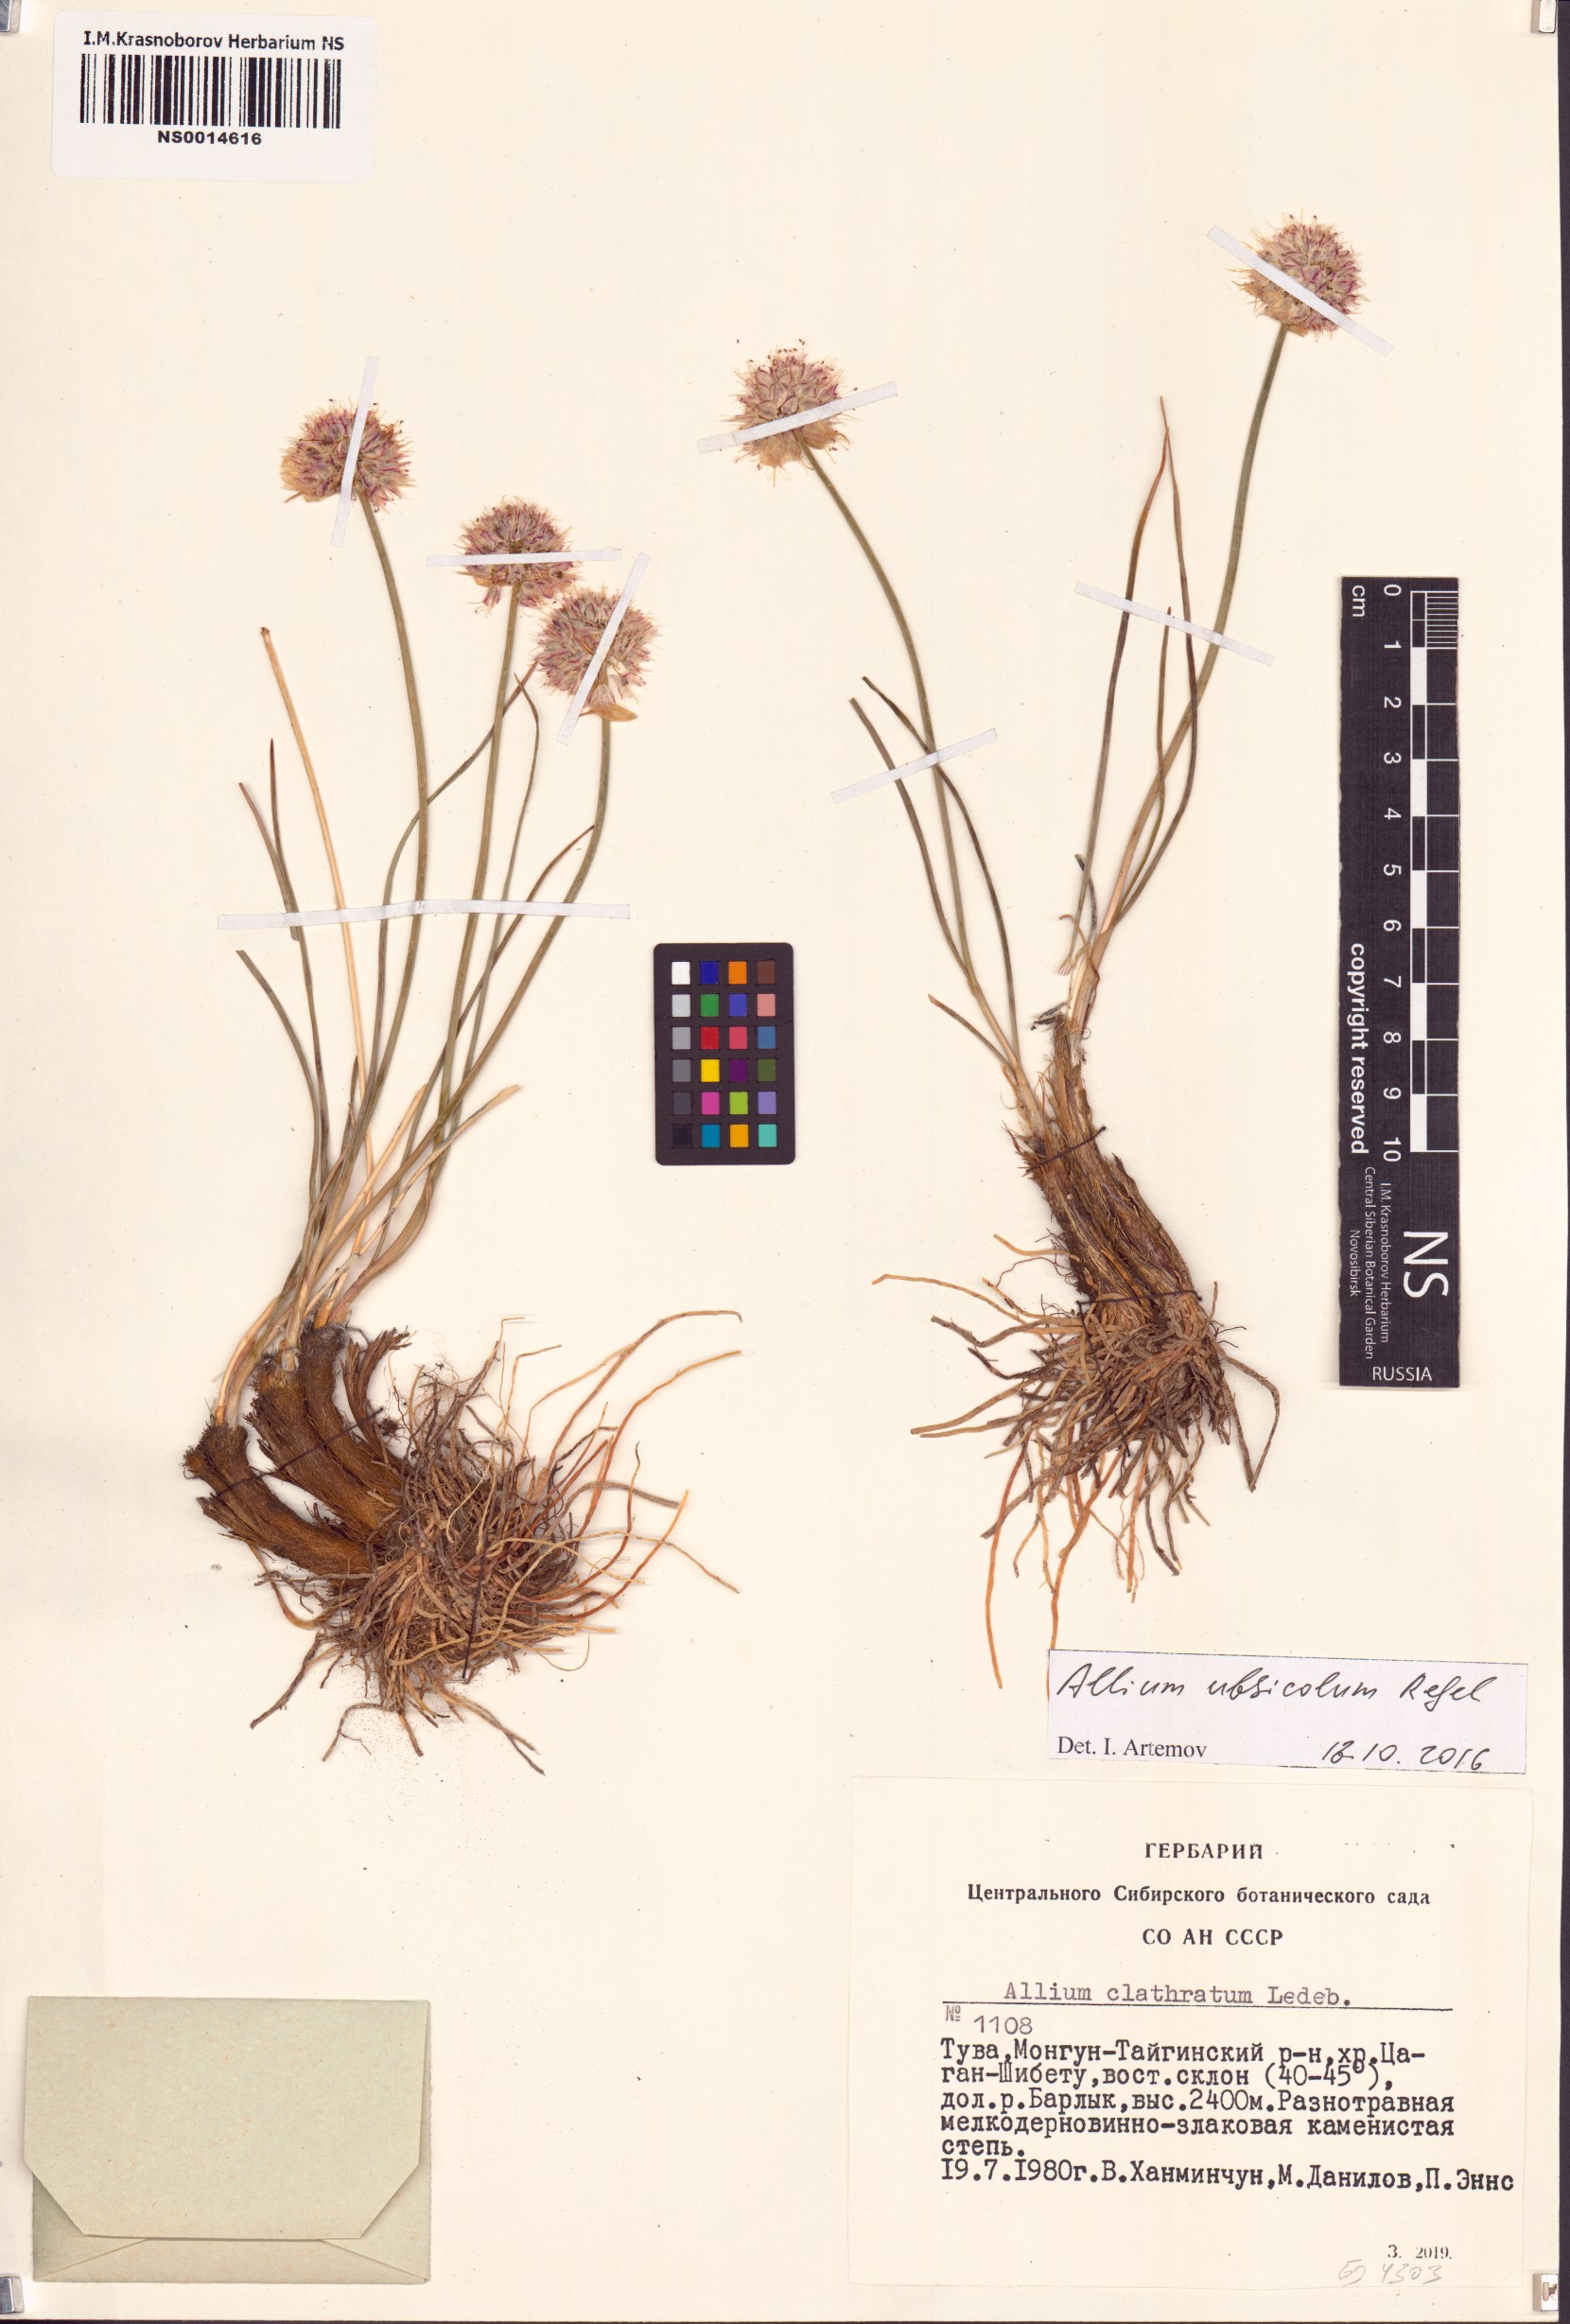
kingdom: Plantae
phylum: Tracheophyta
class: Liliopsida
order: Asparagales
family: Amaryllidaceae
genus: Allium
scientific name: Allium ubsicola
